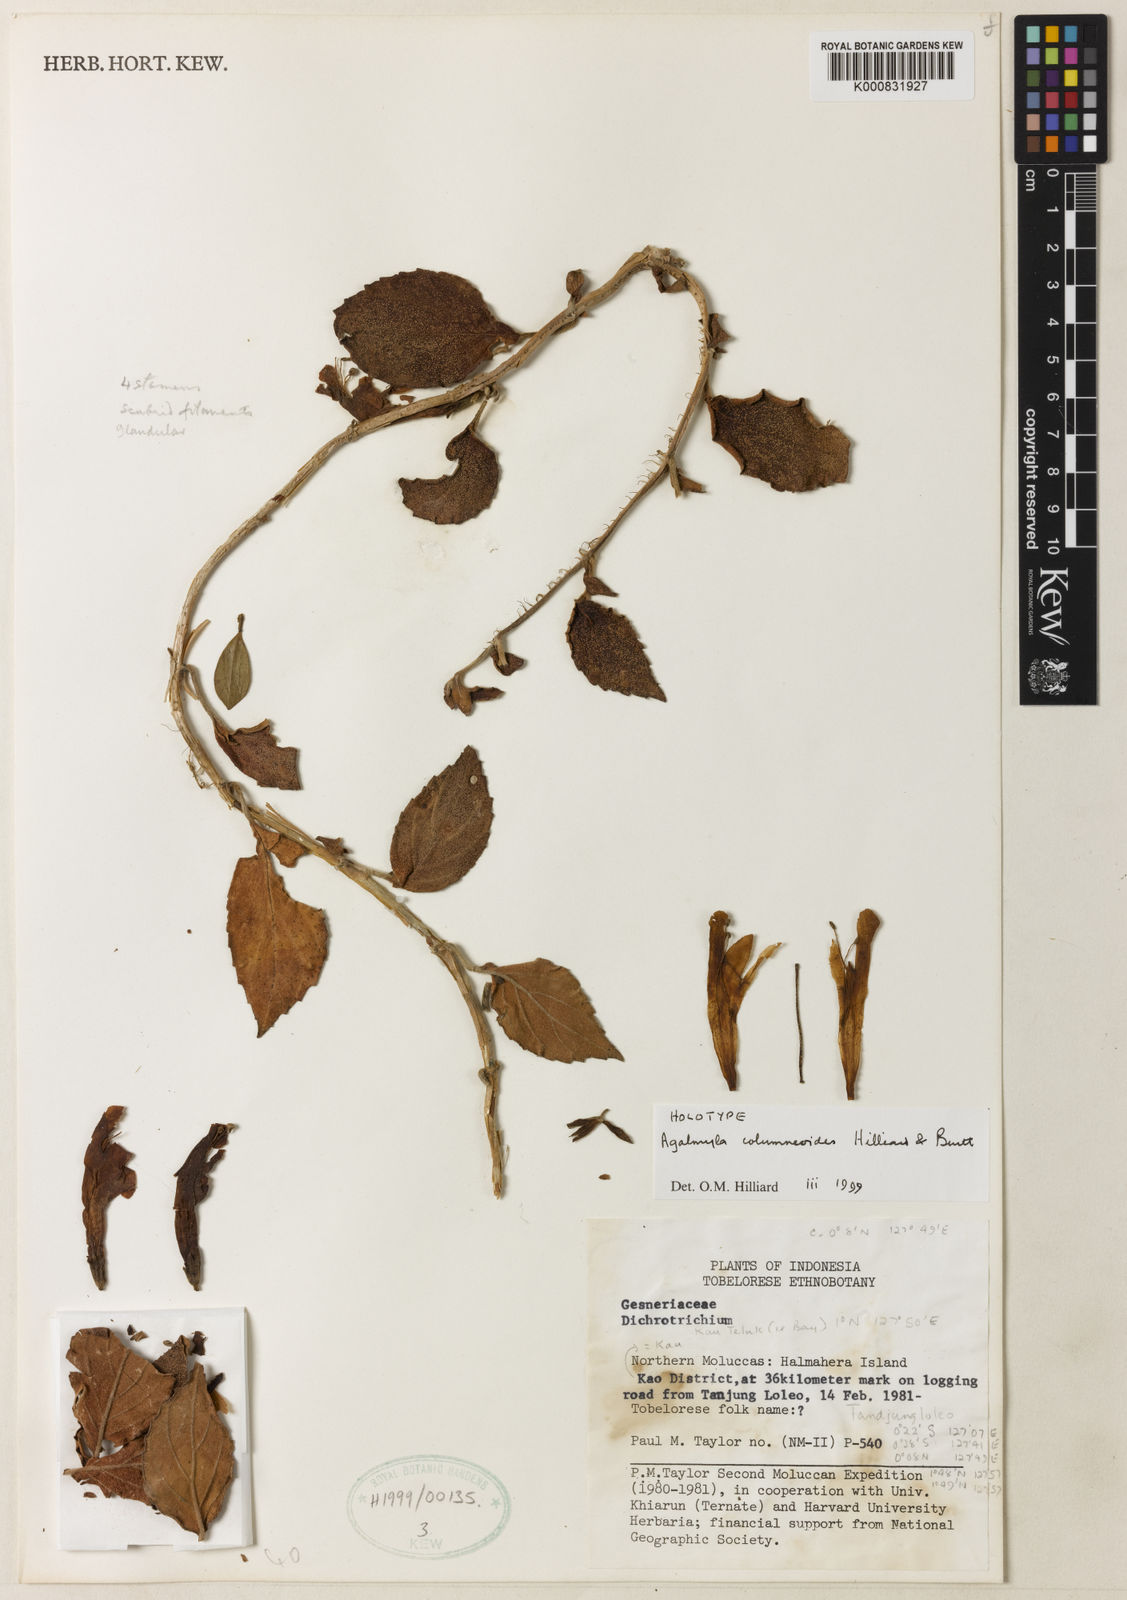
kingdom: Plantae
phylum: Tracheophyta
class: Magnoliopsida
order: Lamiales
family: Gesneriaceae
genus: Agalmyla
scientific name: Agalmyla columneoides
